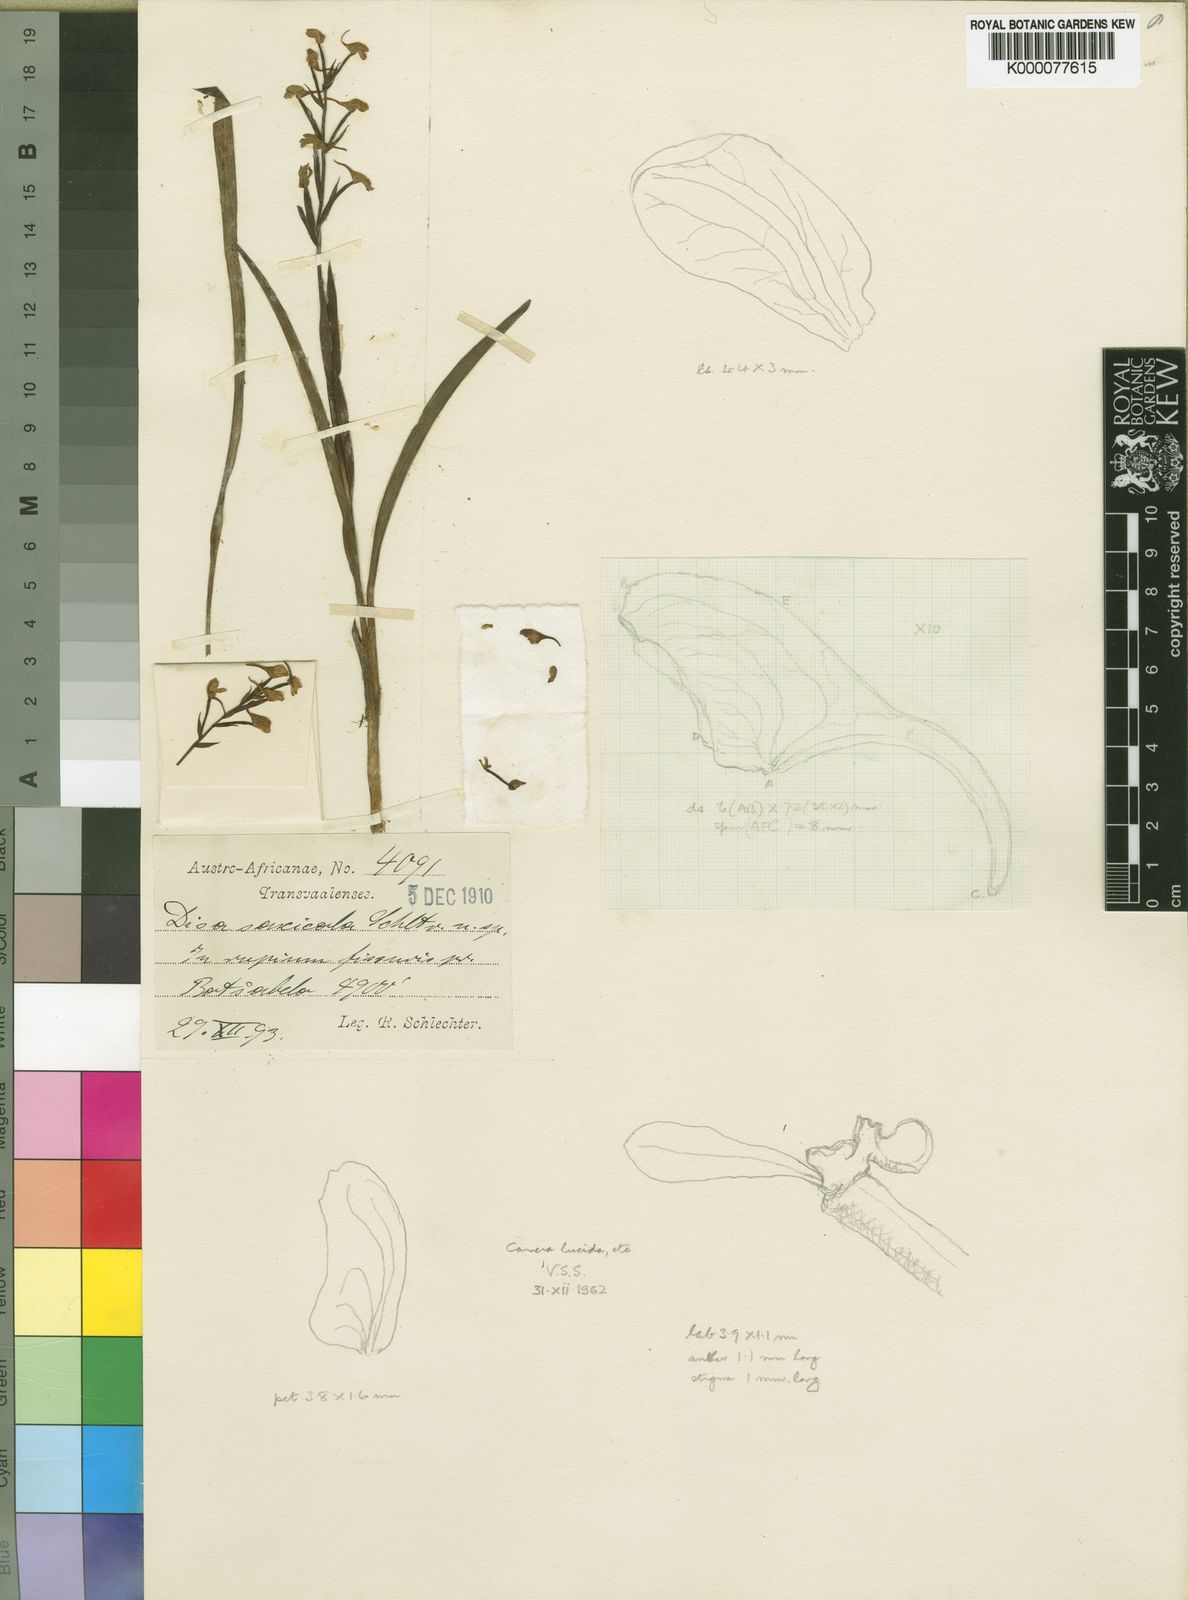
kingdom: Plantae
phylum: Tracheophyta
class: Liliopsida
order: Asparagales
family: Orchidaceae
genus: Disa
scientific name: Disa saxicola
